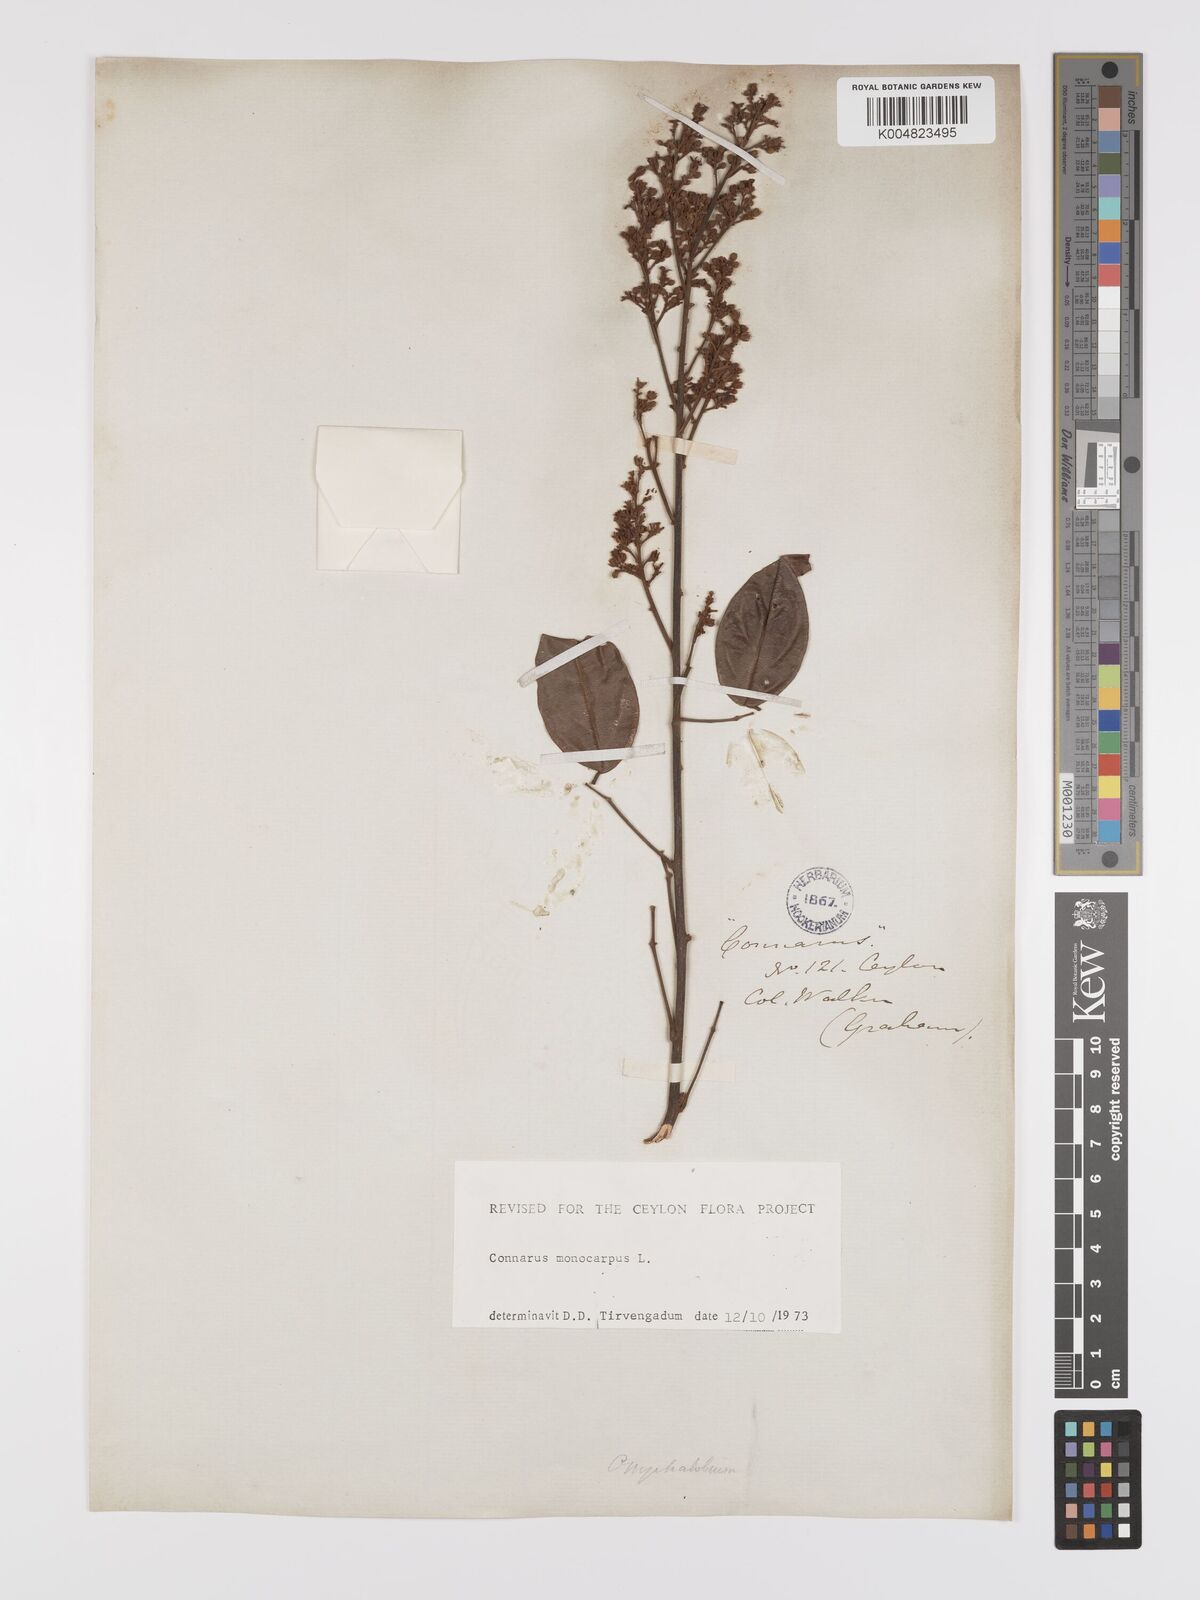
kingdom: Plantae
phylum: Tracheophyta
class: Magnoliopsida
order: Oxalidales
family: Connaraceae
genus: Connarus
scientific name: Connarus semidecandrus
